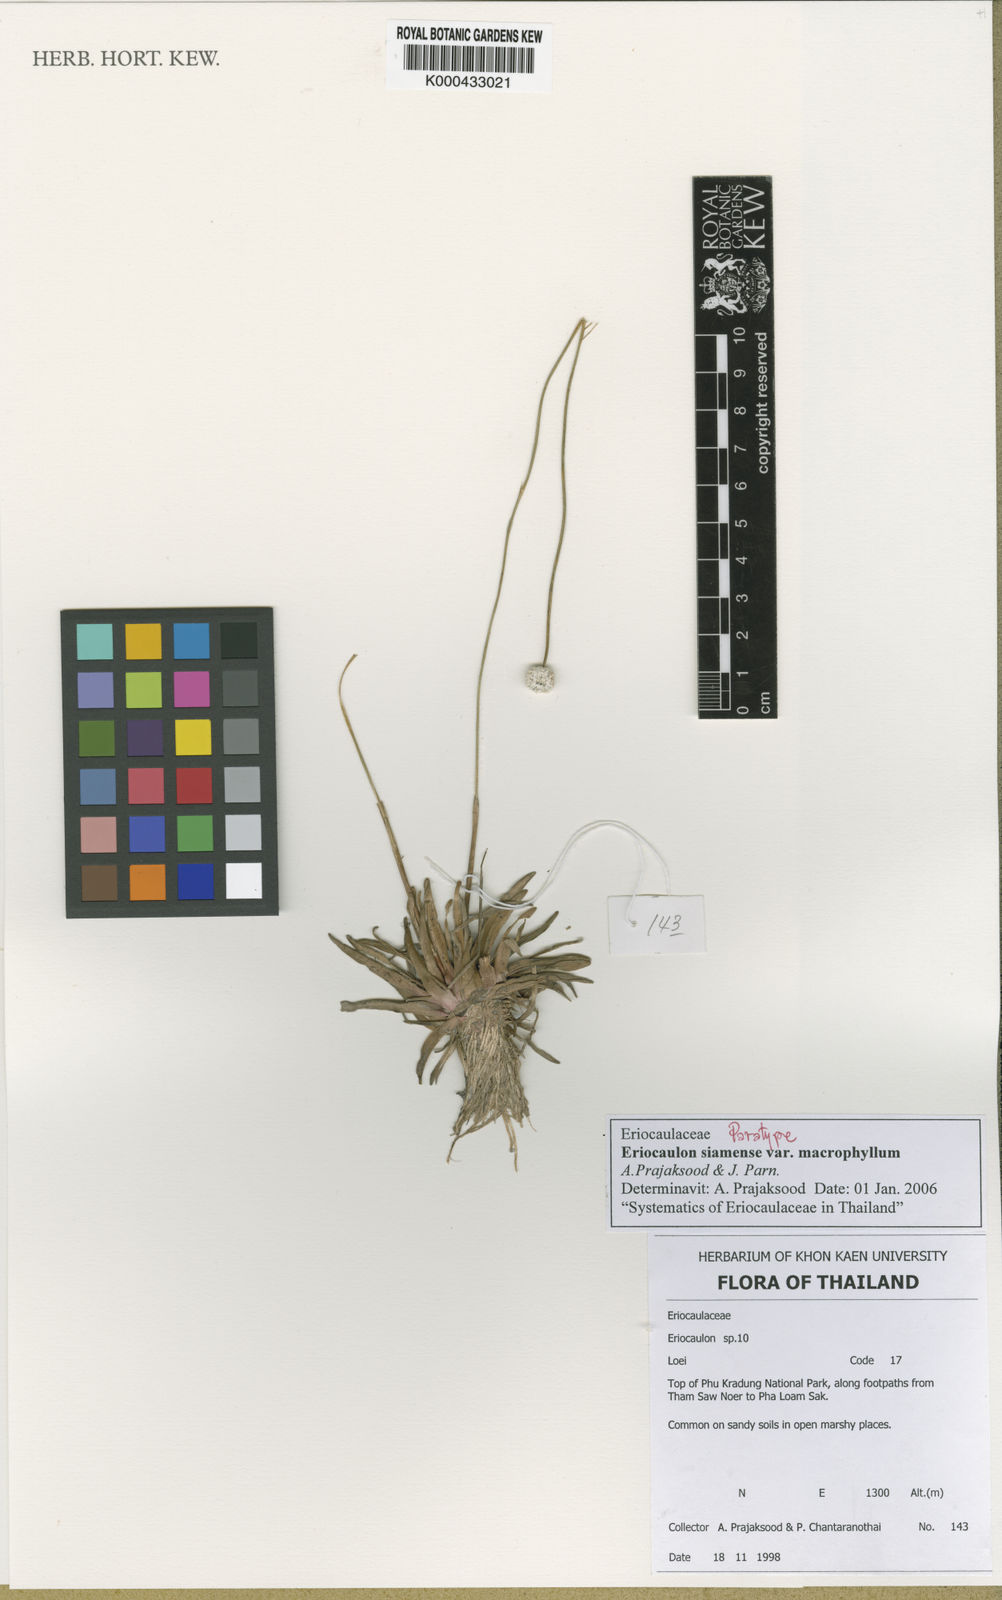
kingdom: Plantae
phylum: Tracheophyta
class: Liliopsida
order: Poales
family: Eriocaulaceae
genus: Eriocaulon
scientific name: Eriocaulon siamense
